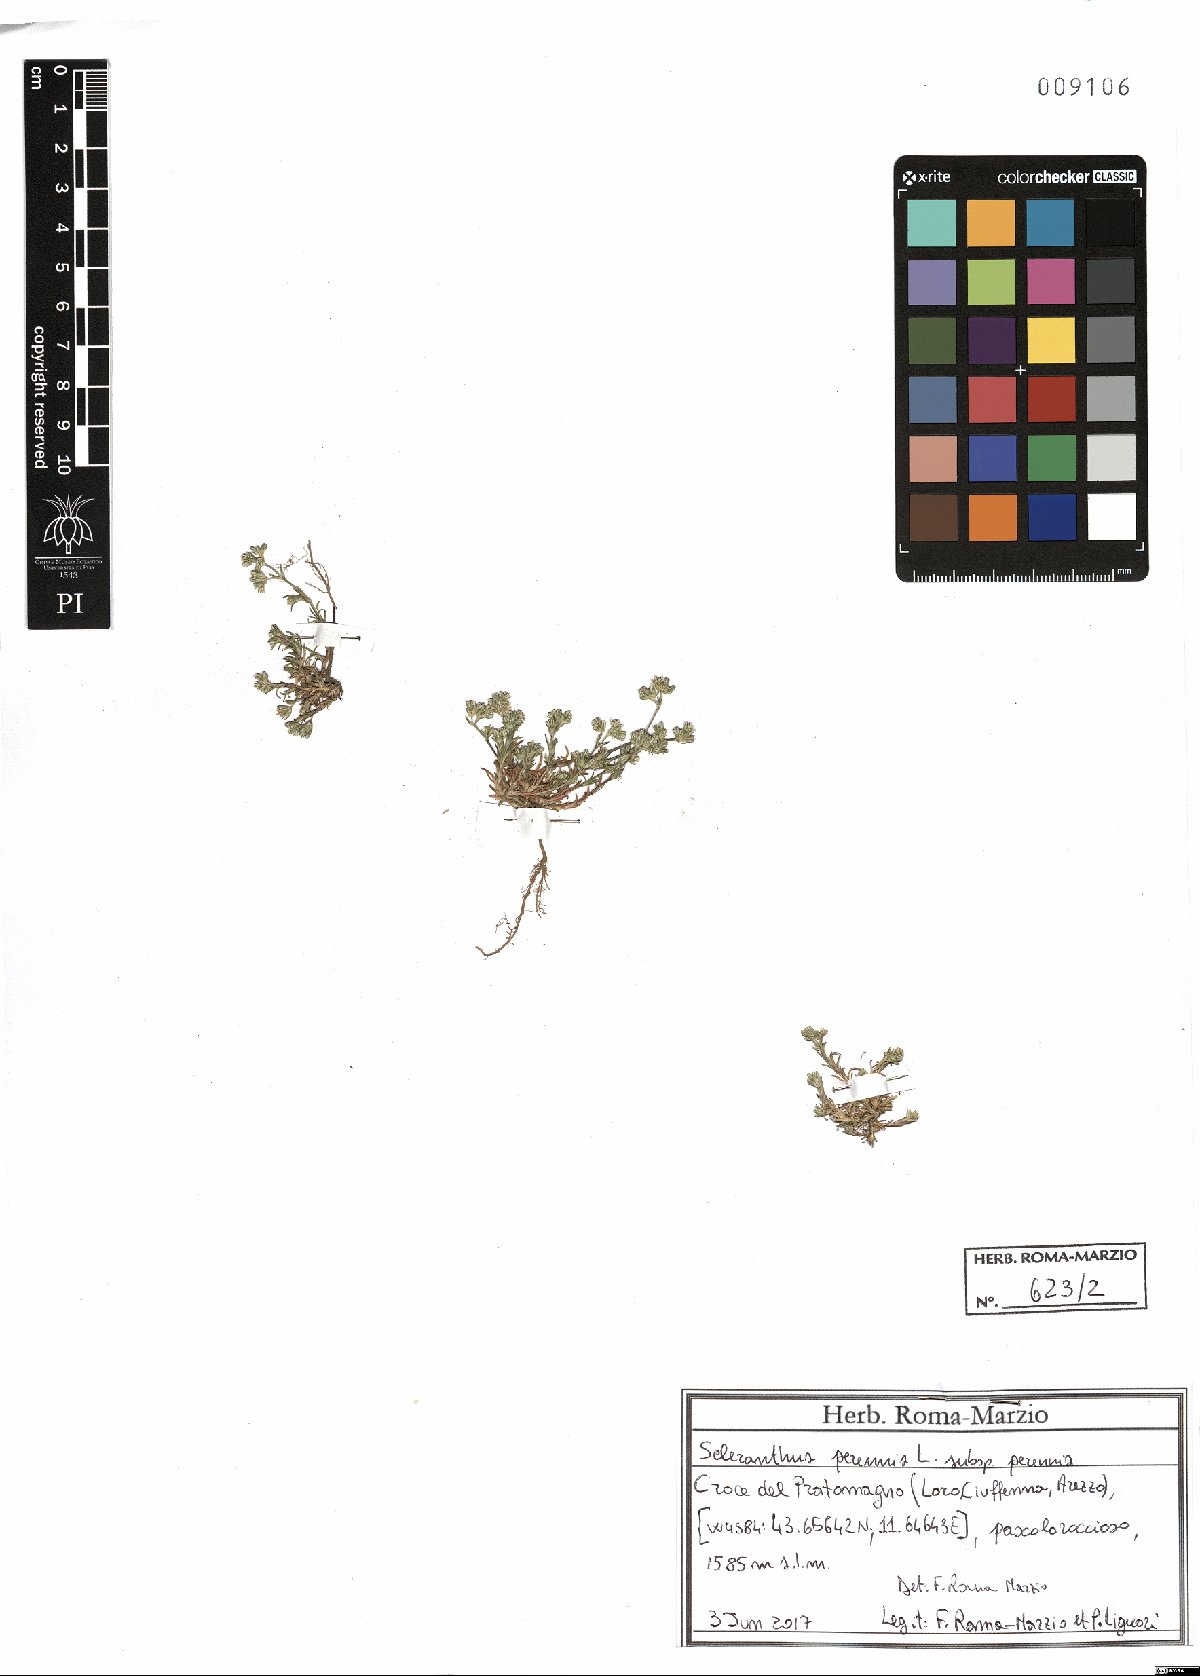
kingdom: Plantae
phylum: Tracheophyta
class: Magnoliopsida
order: Caryophyllales
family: Caryophyllaceae
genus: Scleranthus
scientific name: Scleranthus perennis
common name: Perennial knawel
